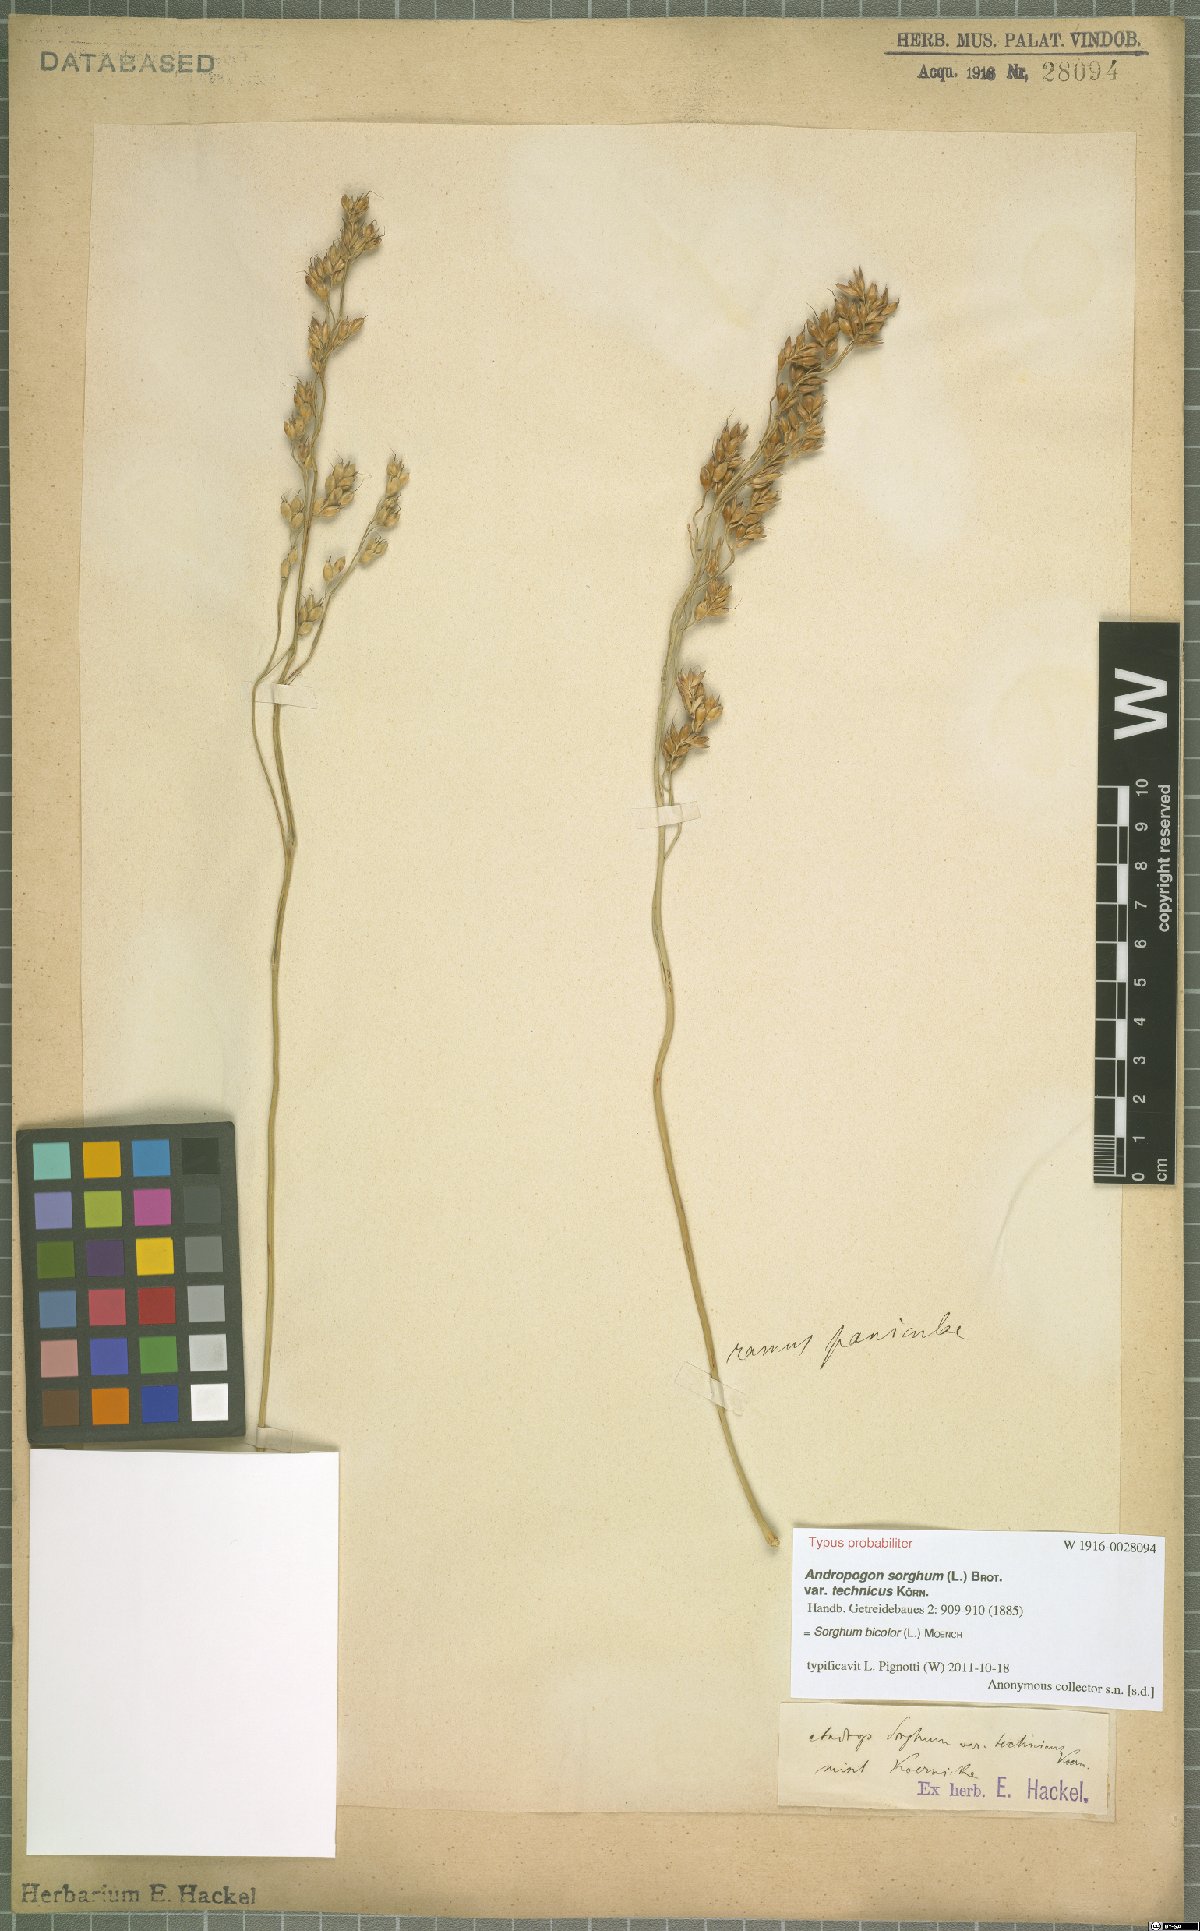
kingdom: Plantae
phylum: Tracheophyta
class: Liliopsida
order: Poales
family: Poaceae
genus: Sorghum
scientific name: Sorghum bicolor
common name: Sorghum
